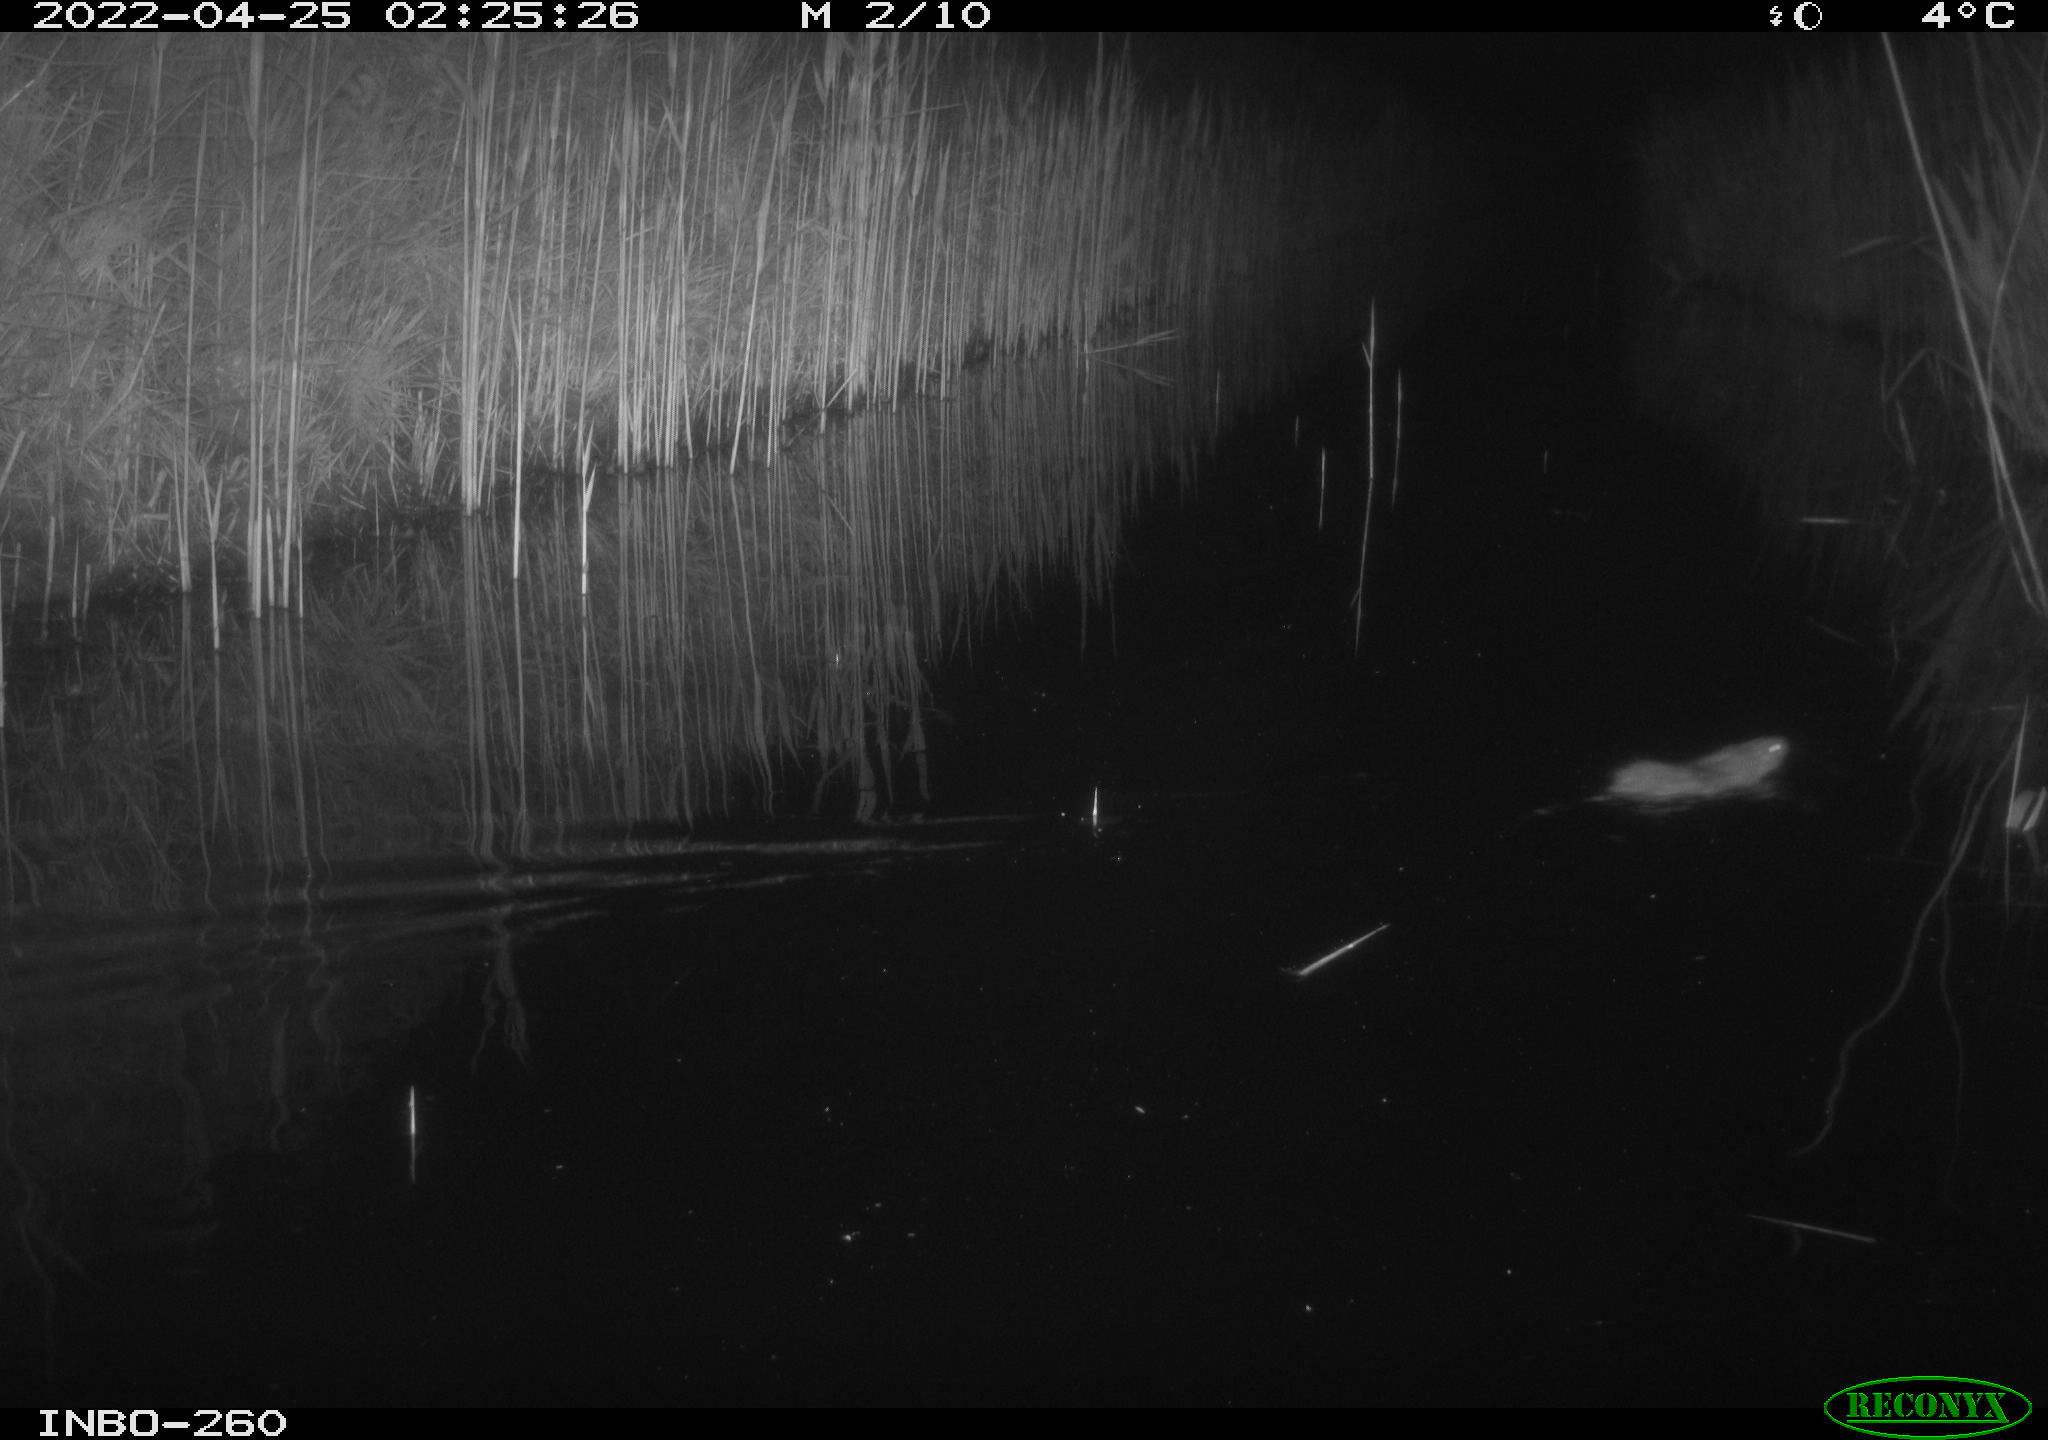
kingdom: Animalia
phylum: Chordata
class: Mammalia
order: Rodentia
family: Muridae
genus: Rattus
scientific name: Rattus norvegicus
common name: Brown rat
